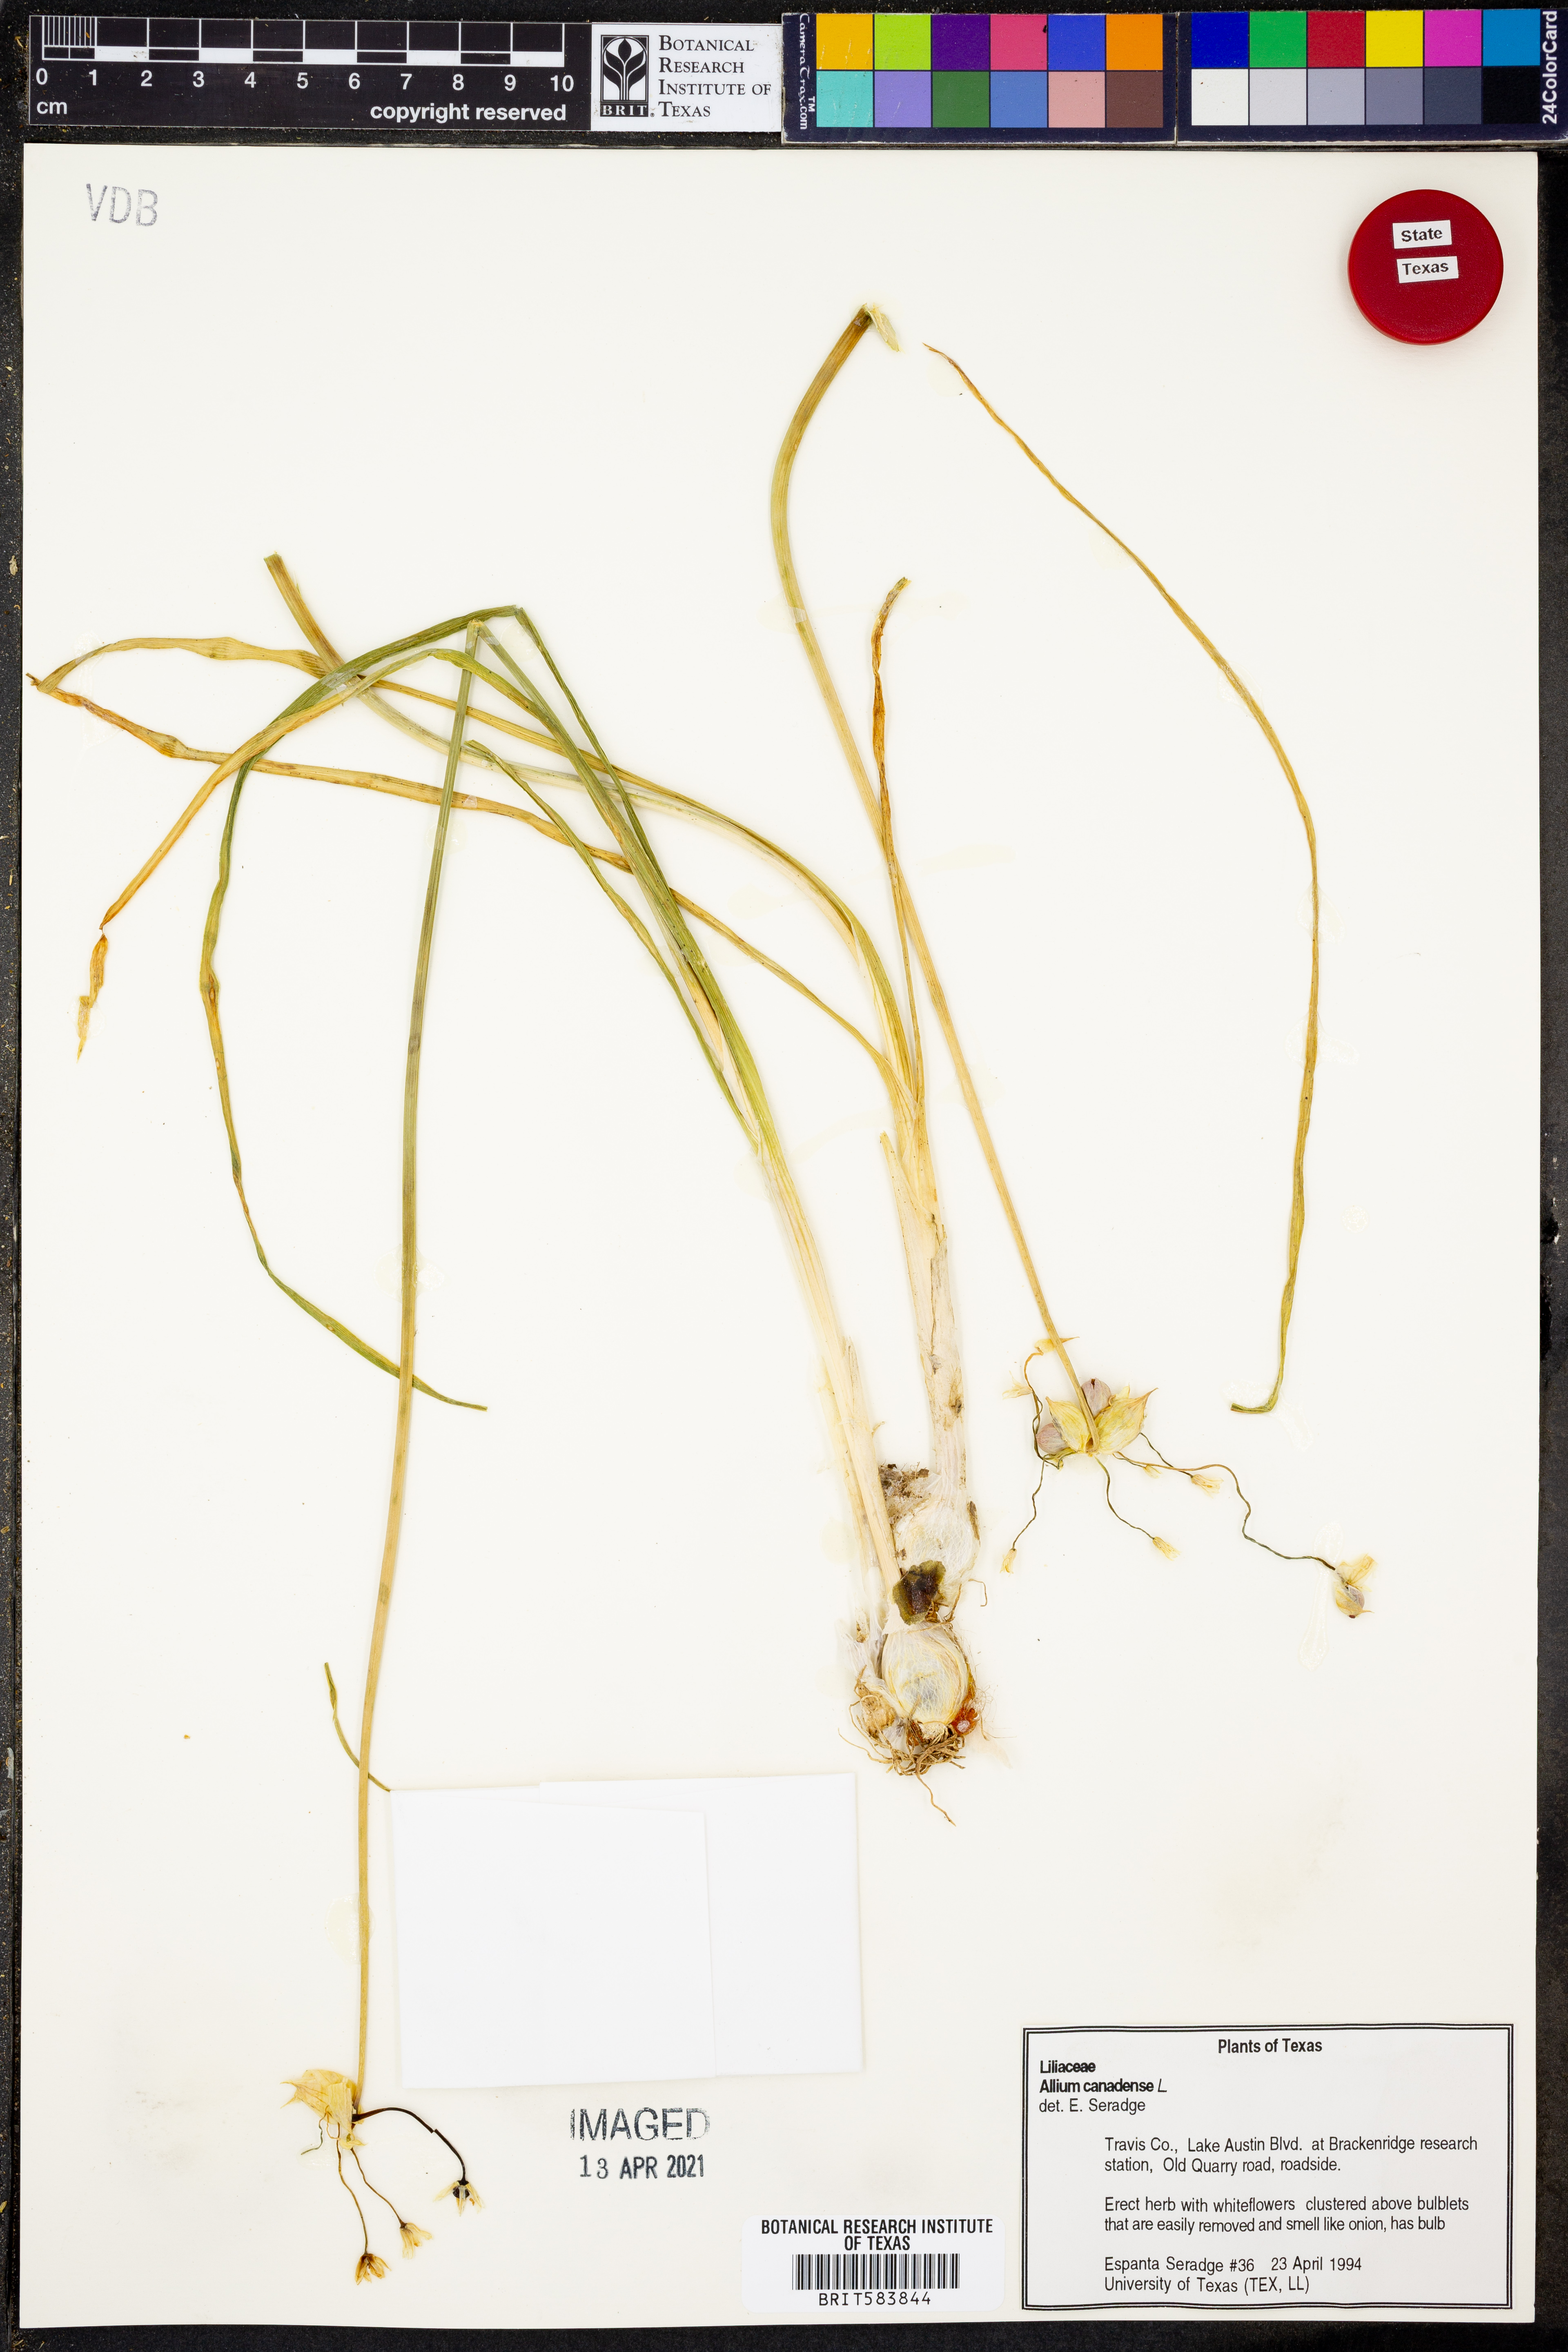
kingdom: Plantae
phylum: Tracheophyta
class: Liliopsida
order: Asparagales
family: Amaryllidaceae
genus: Allium
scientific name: Allium canadense
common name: Meadow garlic
